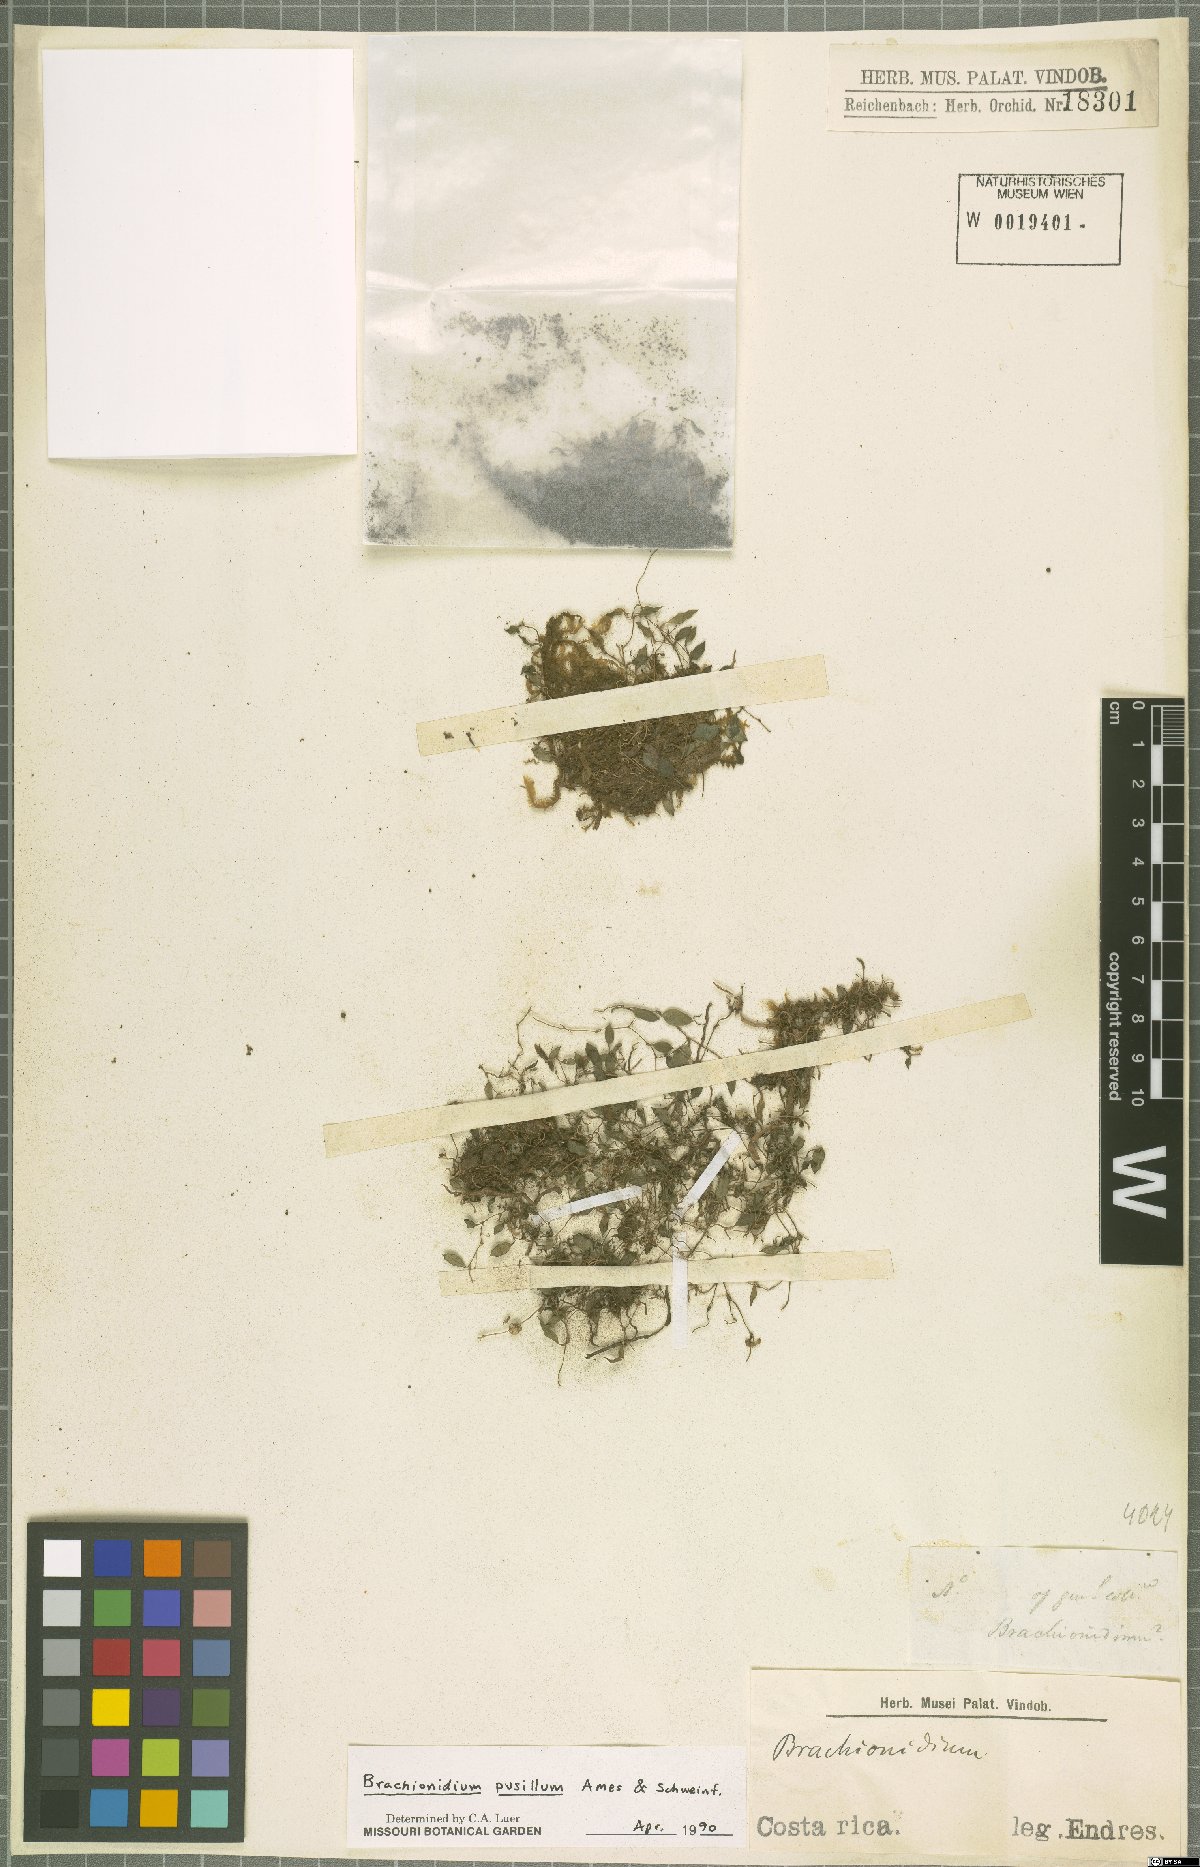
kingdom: Plantae
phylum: Tracheophyta
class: Liliopsida
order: Asparagales
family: Orchidaceae
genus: Brachionidium
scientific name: Brachionidium pusillum
